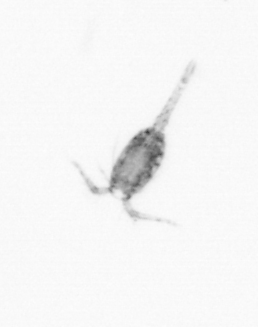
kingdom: Animalia
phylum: Arthropoda
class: Copepoda
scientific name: Copepoda
